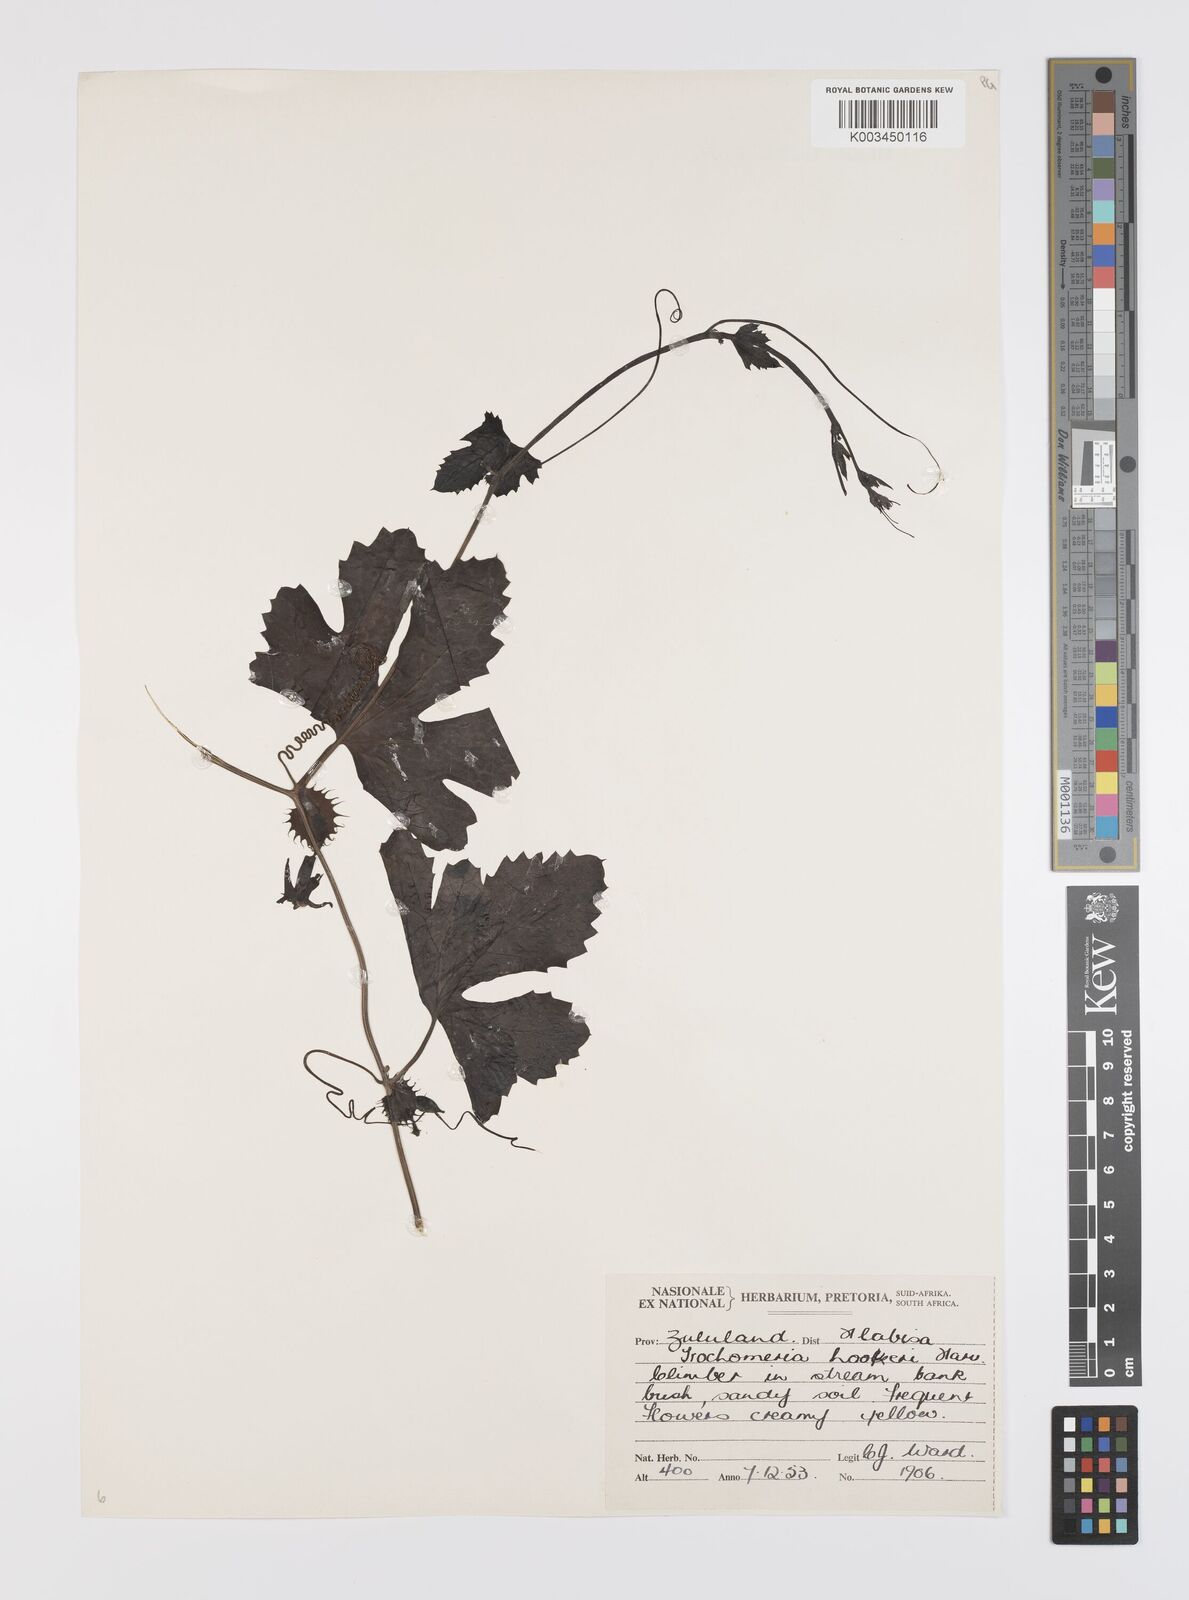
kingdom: Plantae
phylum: Tracheophyta
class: Magnoliopsida
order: Cucurbitales
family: Cucurbitaceae
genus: Trochomeria
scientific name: Trochomeria hookeri
